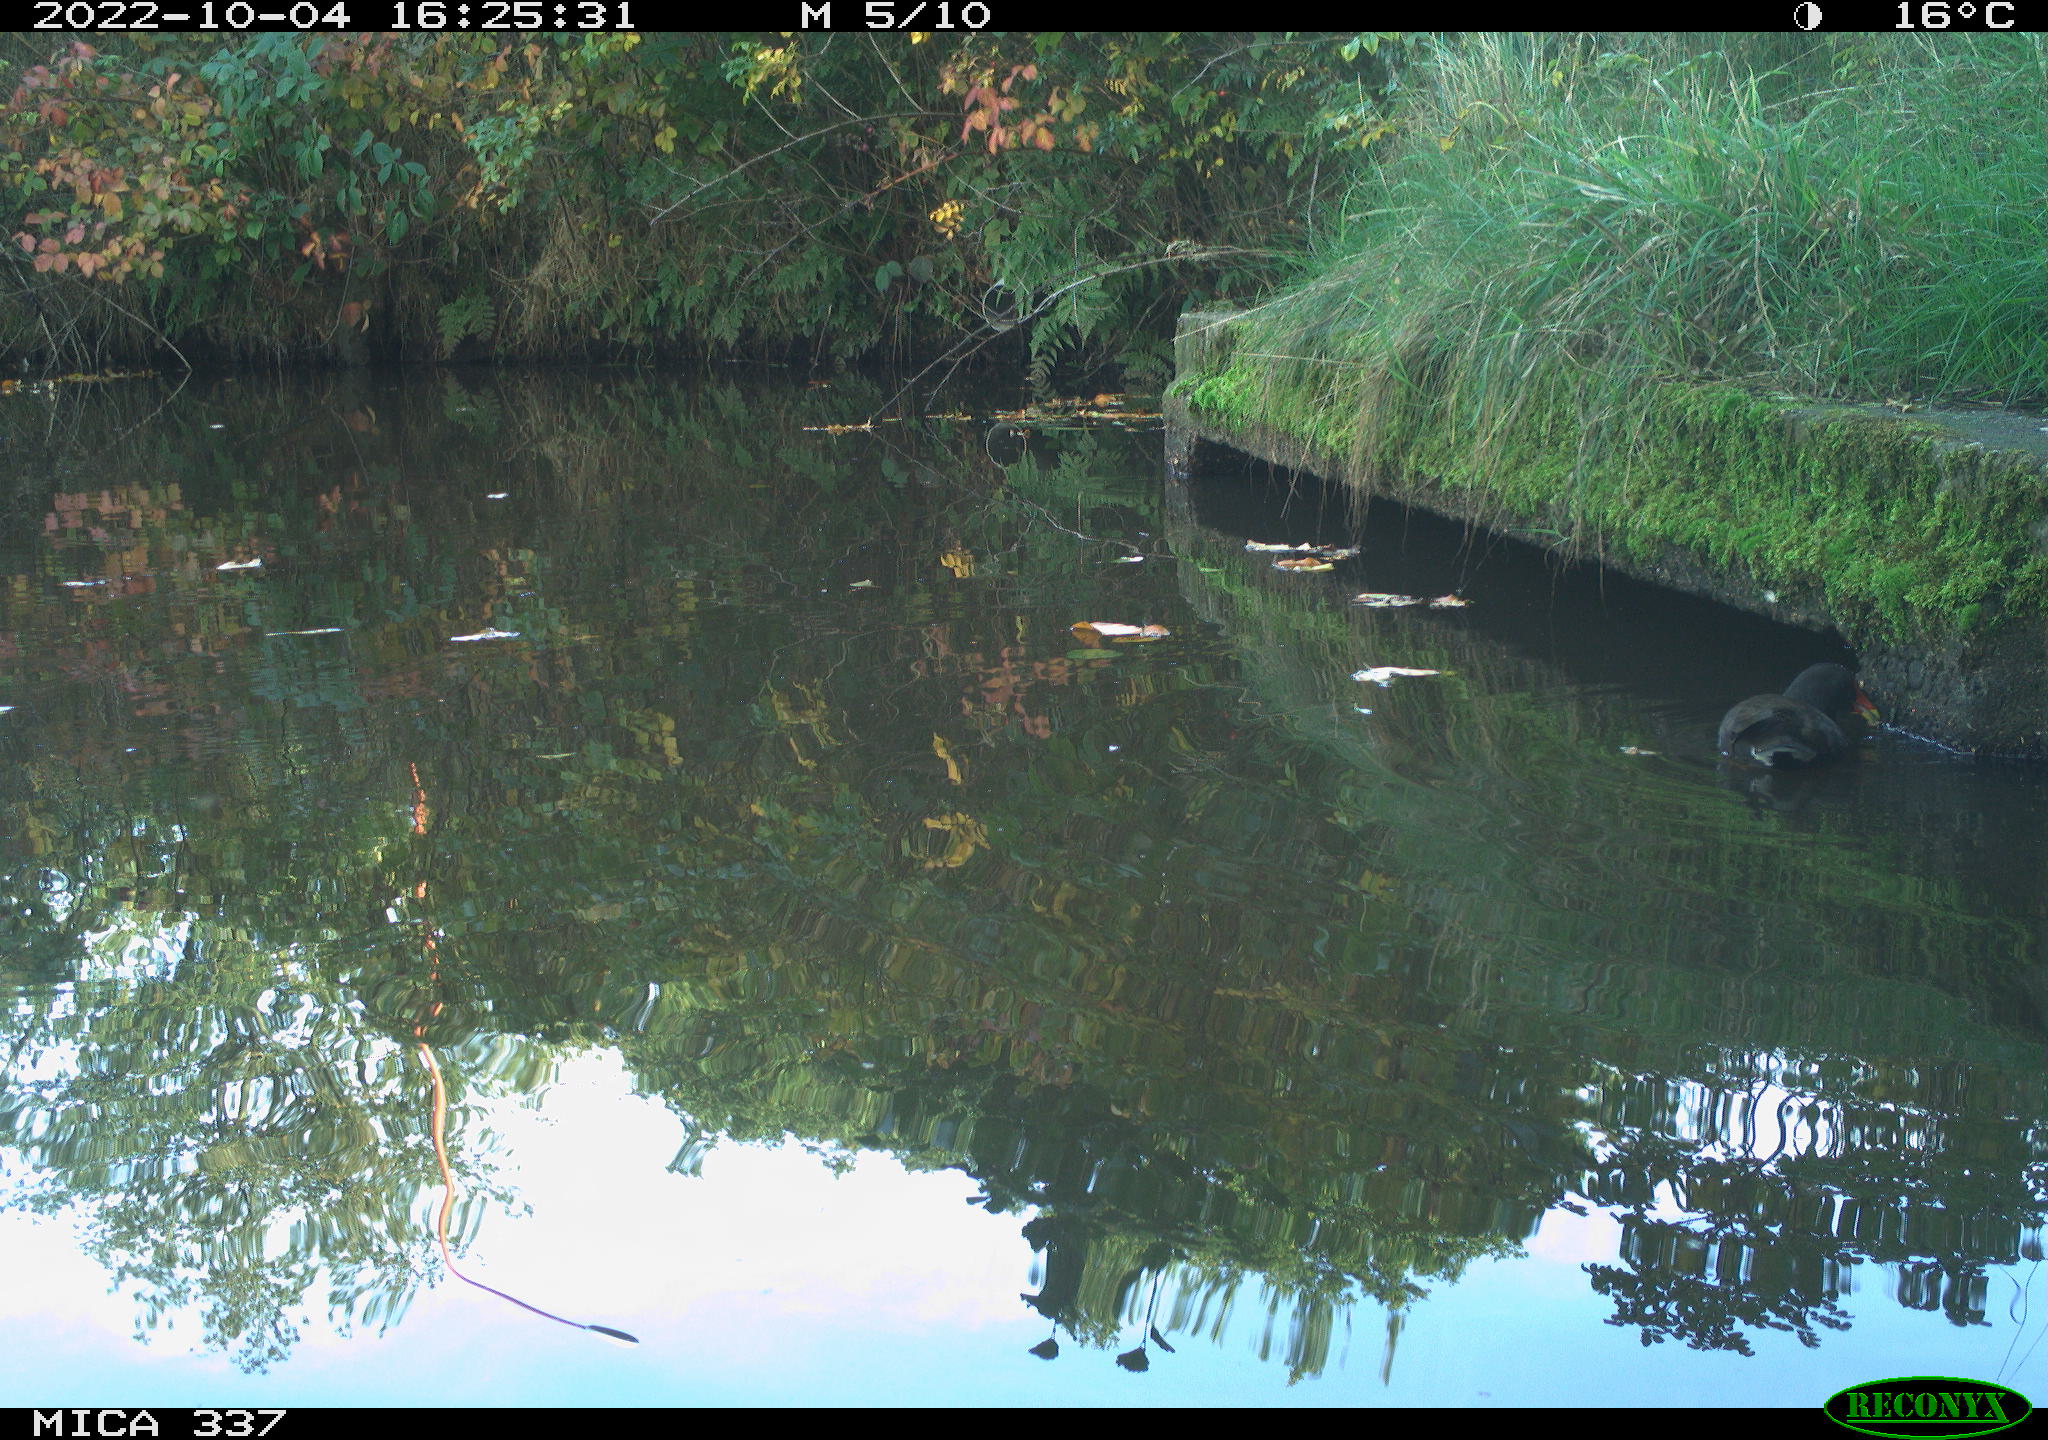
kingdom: Animalia
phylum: Chordata
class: Aves
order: Gruiformes
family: Rallidae
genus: Gallinula
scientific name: Gallinula chloropus
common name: Common moorhen
